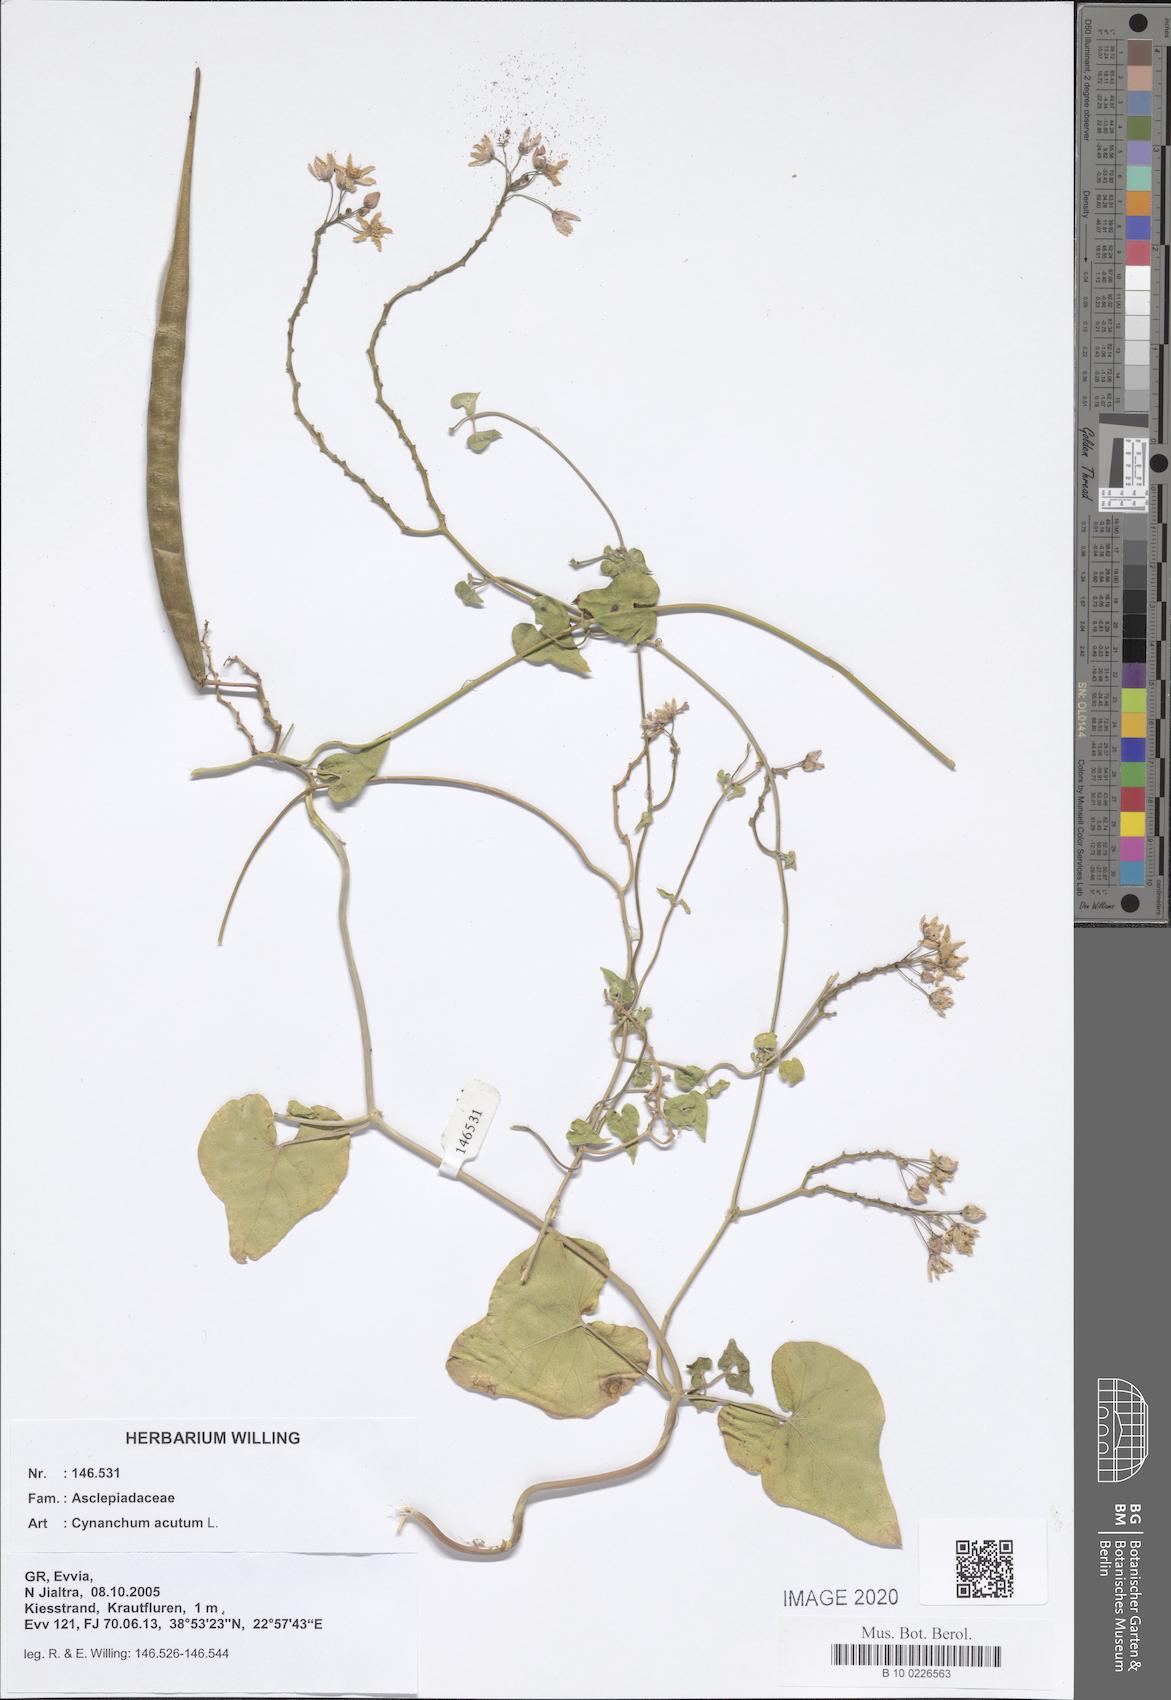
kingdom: Plantae
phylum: Tracheophyta
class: Magnoliopsida
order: Gentianales
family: Apocynaceae
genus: Cynanchum
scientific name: Cynanchum acutum
